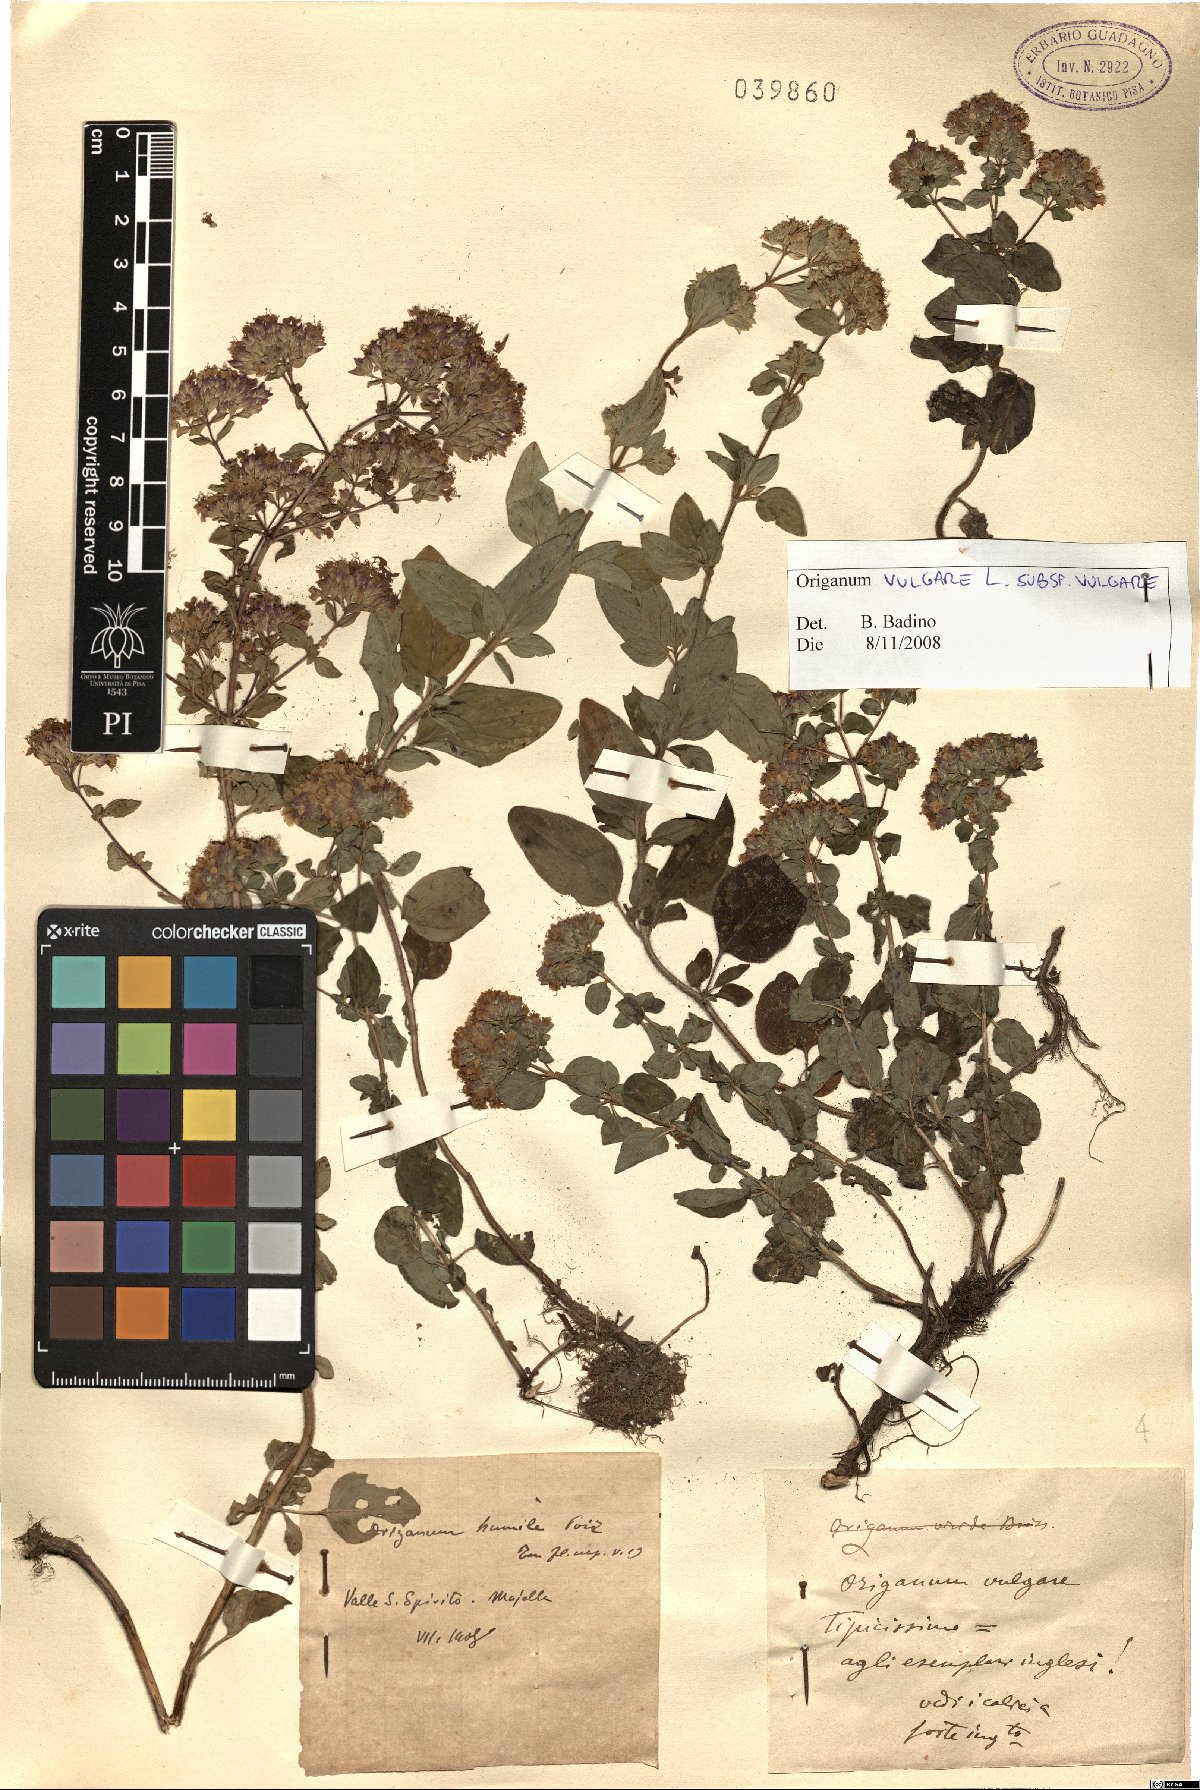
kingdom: Plantae
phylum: Tracheophyta
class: Magnoliopsida
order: Lamiales
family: Lamiaceae
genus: Origanum
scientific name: Origanum vulgare
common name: Wild marjoram
